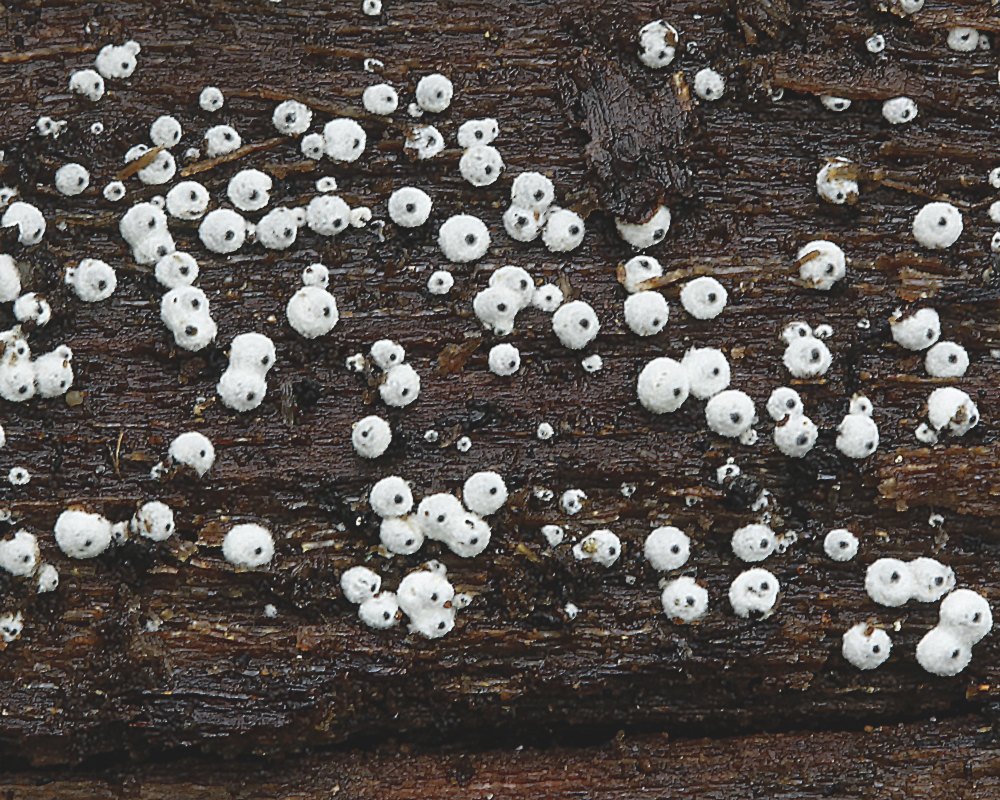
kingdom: Fungi
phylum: Ascomycota
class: Sordariomycetes
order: Sordariales
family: Lasiosphaeriaceae
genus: Lasiosphaeria
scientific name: Lasiosphaeria ovina
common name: fåre-kernesvamp
